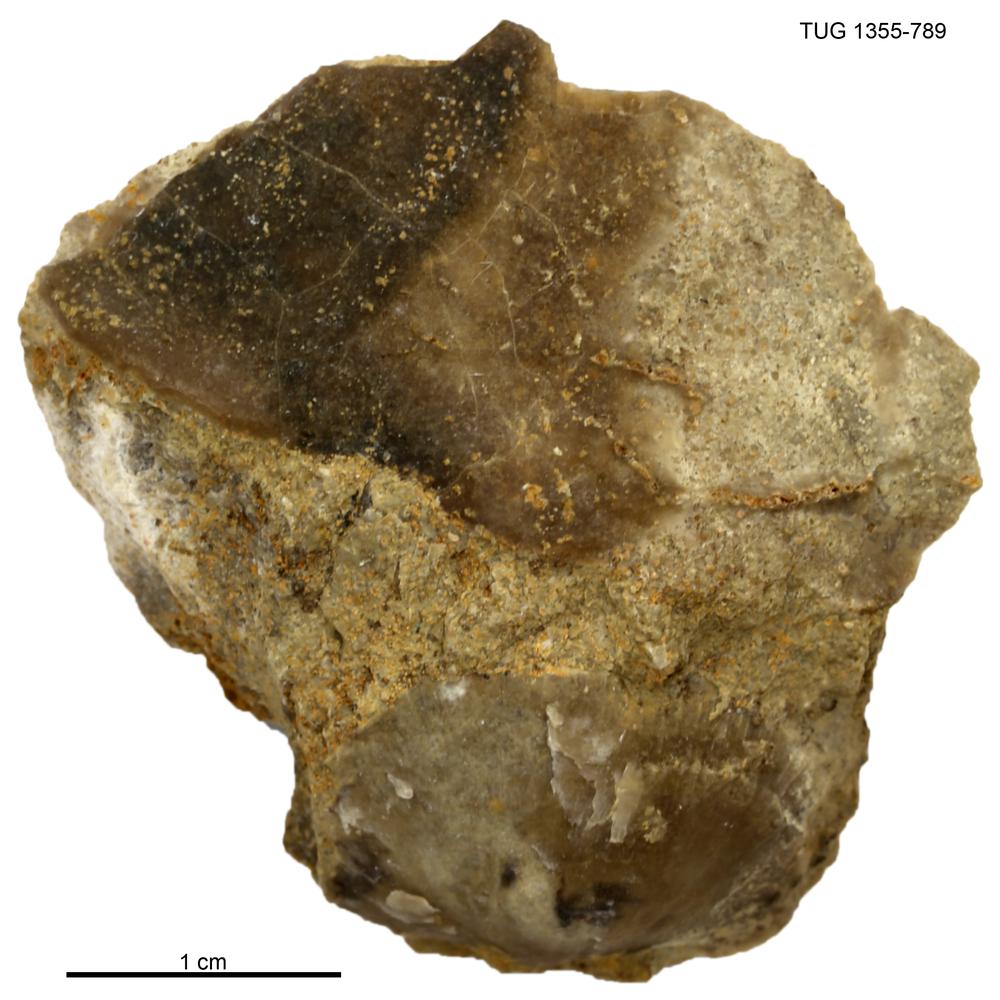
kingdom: Animalia
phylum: Arthropoda
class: Trilobita
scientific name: Trilobita
